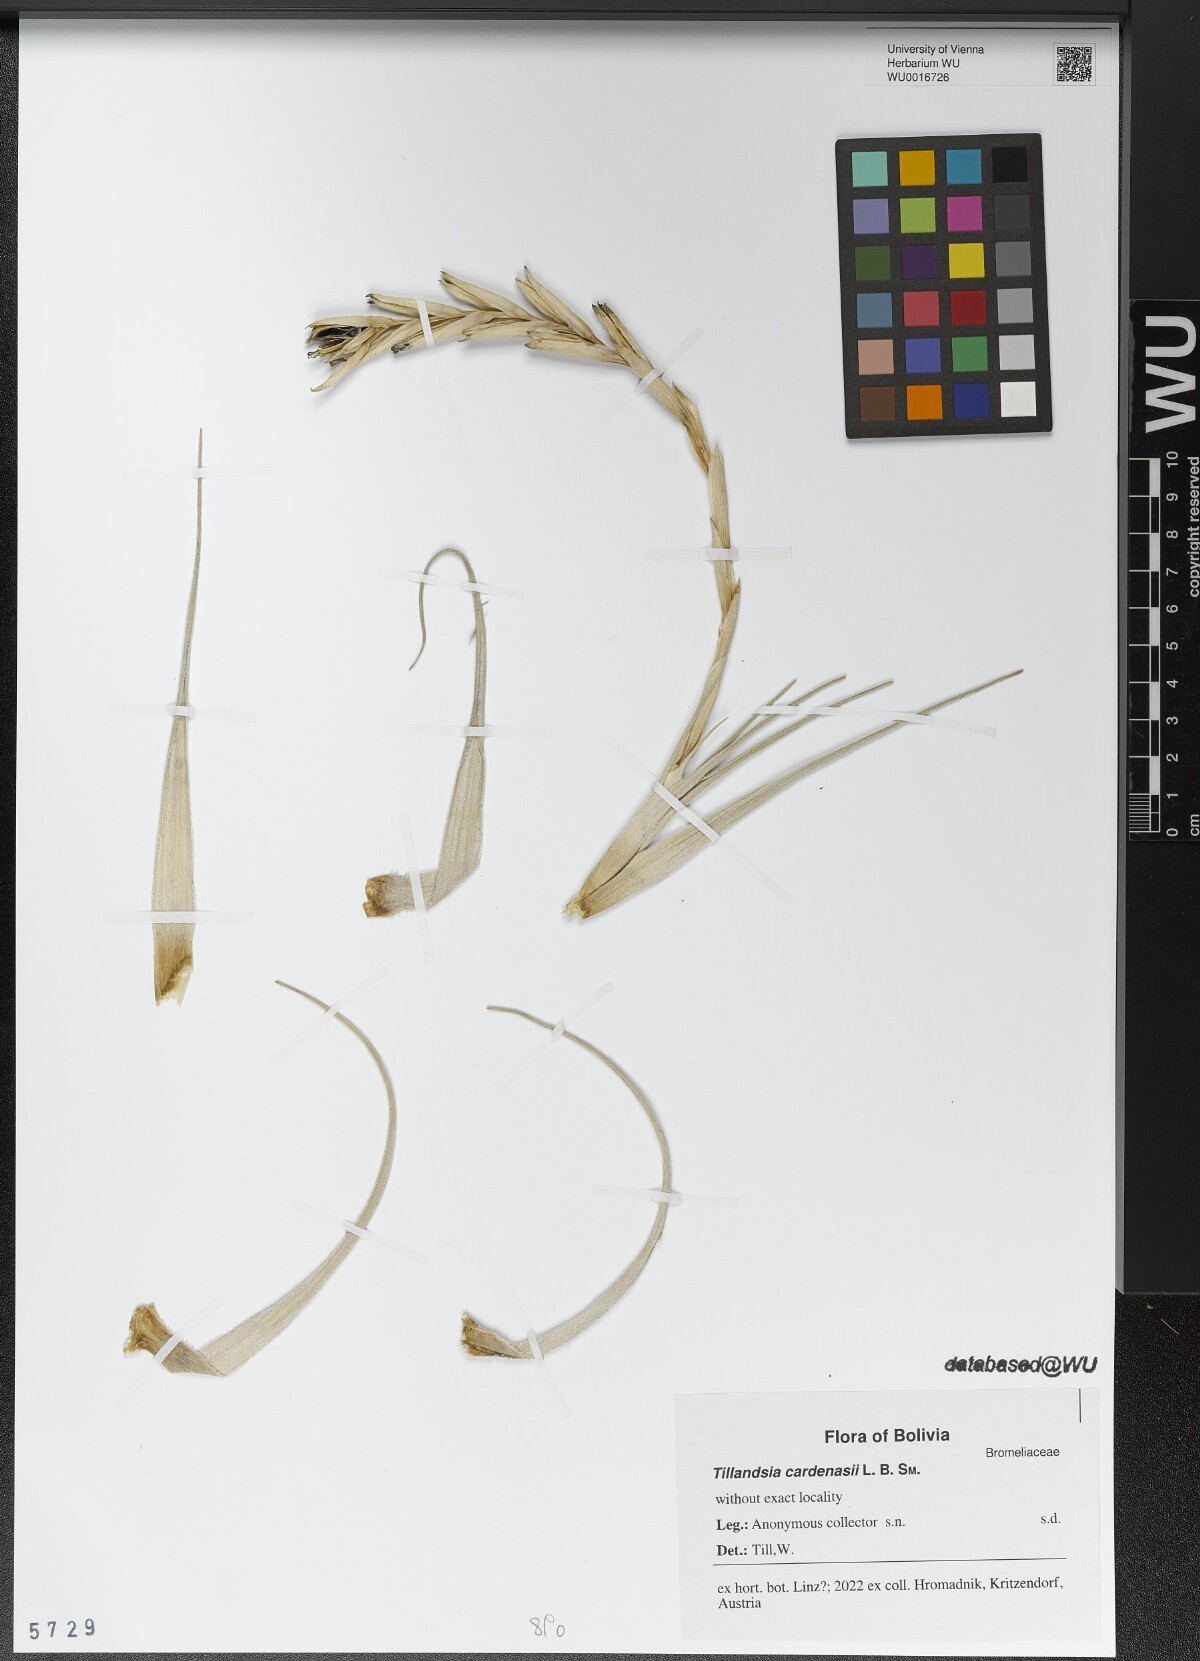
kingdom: Plantae
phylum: Tracheophyta
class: Liliopsida
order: Poales
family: Bromeliaceae
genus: Tillandsia
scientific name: Tillandsia cardenasii
